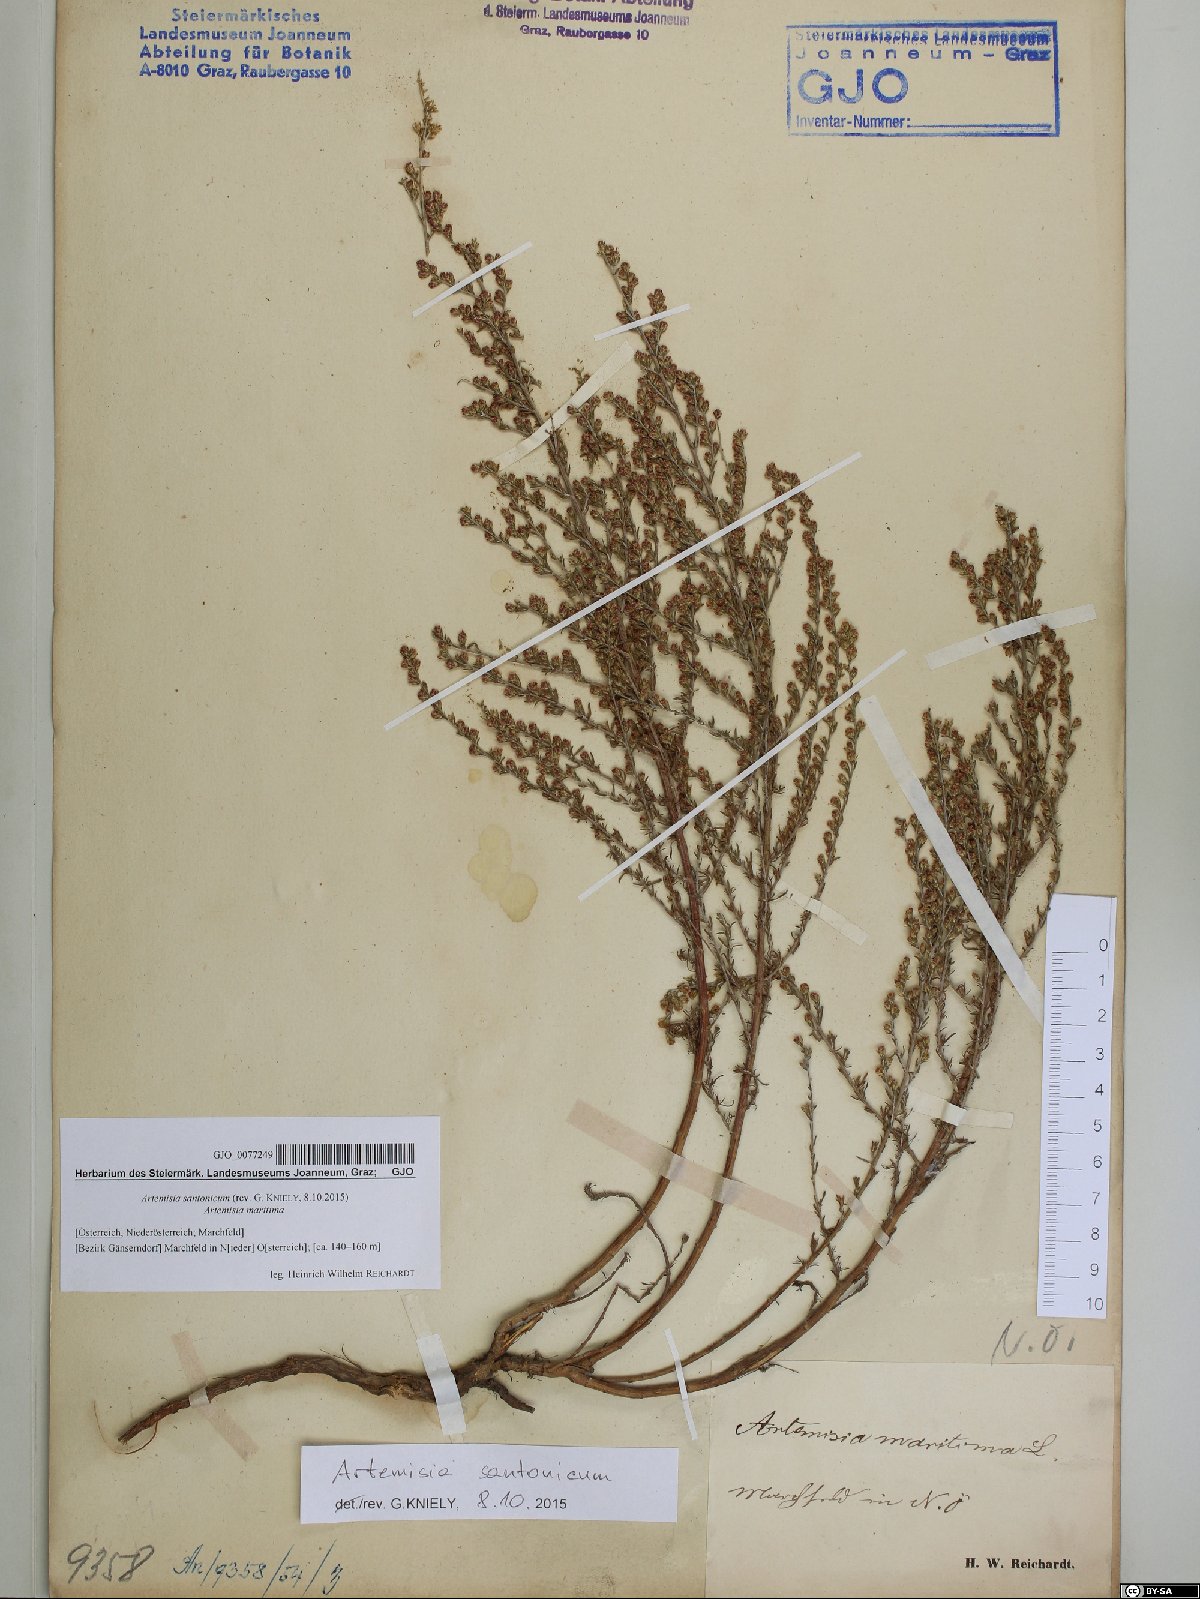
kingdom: Plantae
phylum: Tracheophyta
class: Magnoliopsida
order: Asterales
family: Asteraceae
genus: Artemisia
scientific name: Artemisia santonicum
